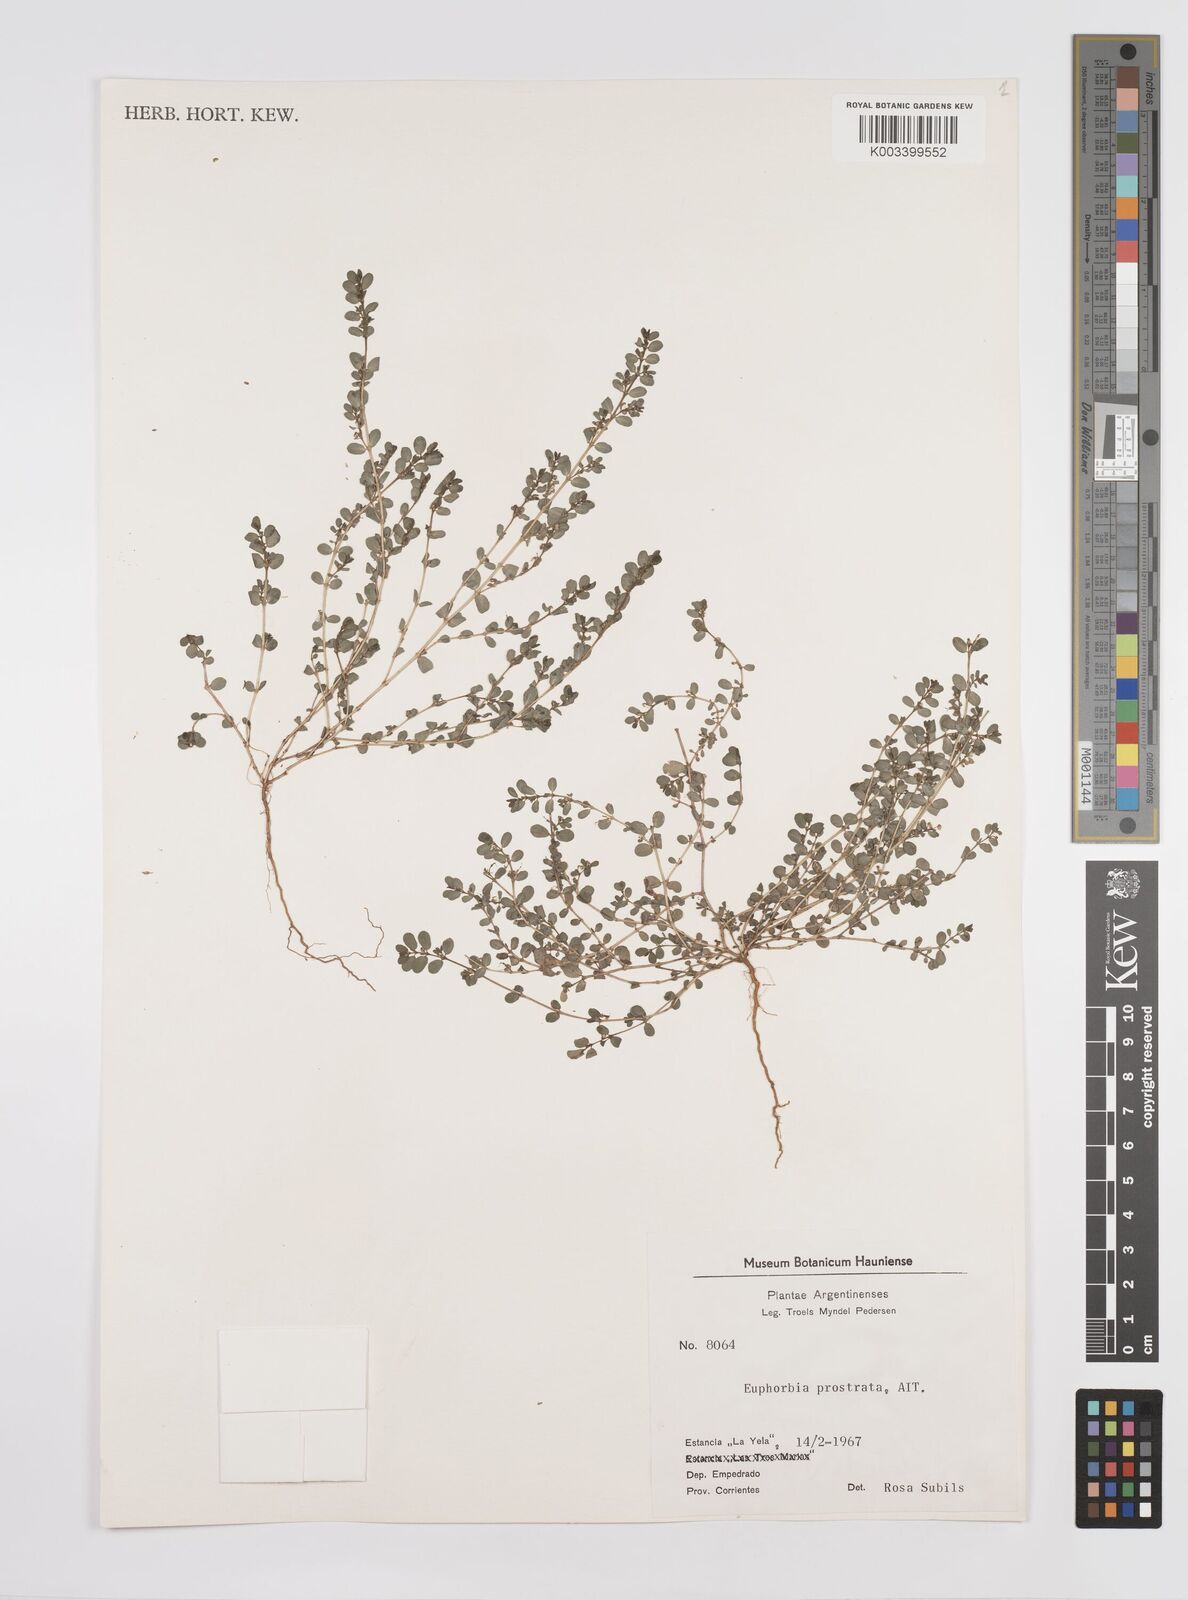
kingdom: Plantae
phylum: Tracheophyta
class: Magnoliopsida
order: Malpighiales
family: Euphorbiaceae
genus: Euphorbia
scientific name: Euphorbia
